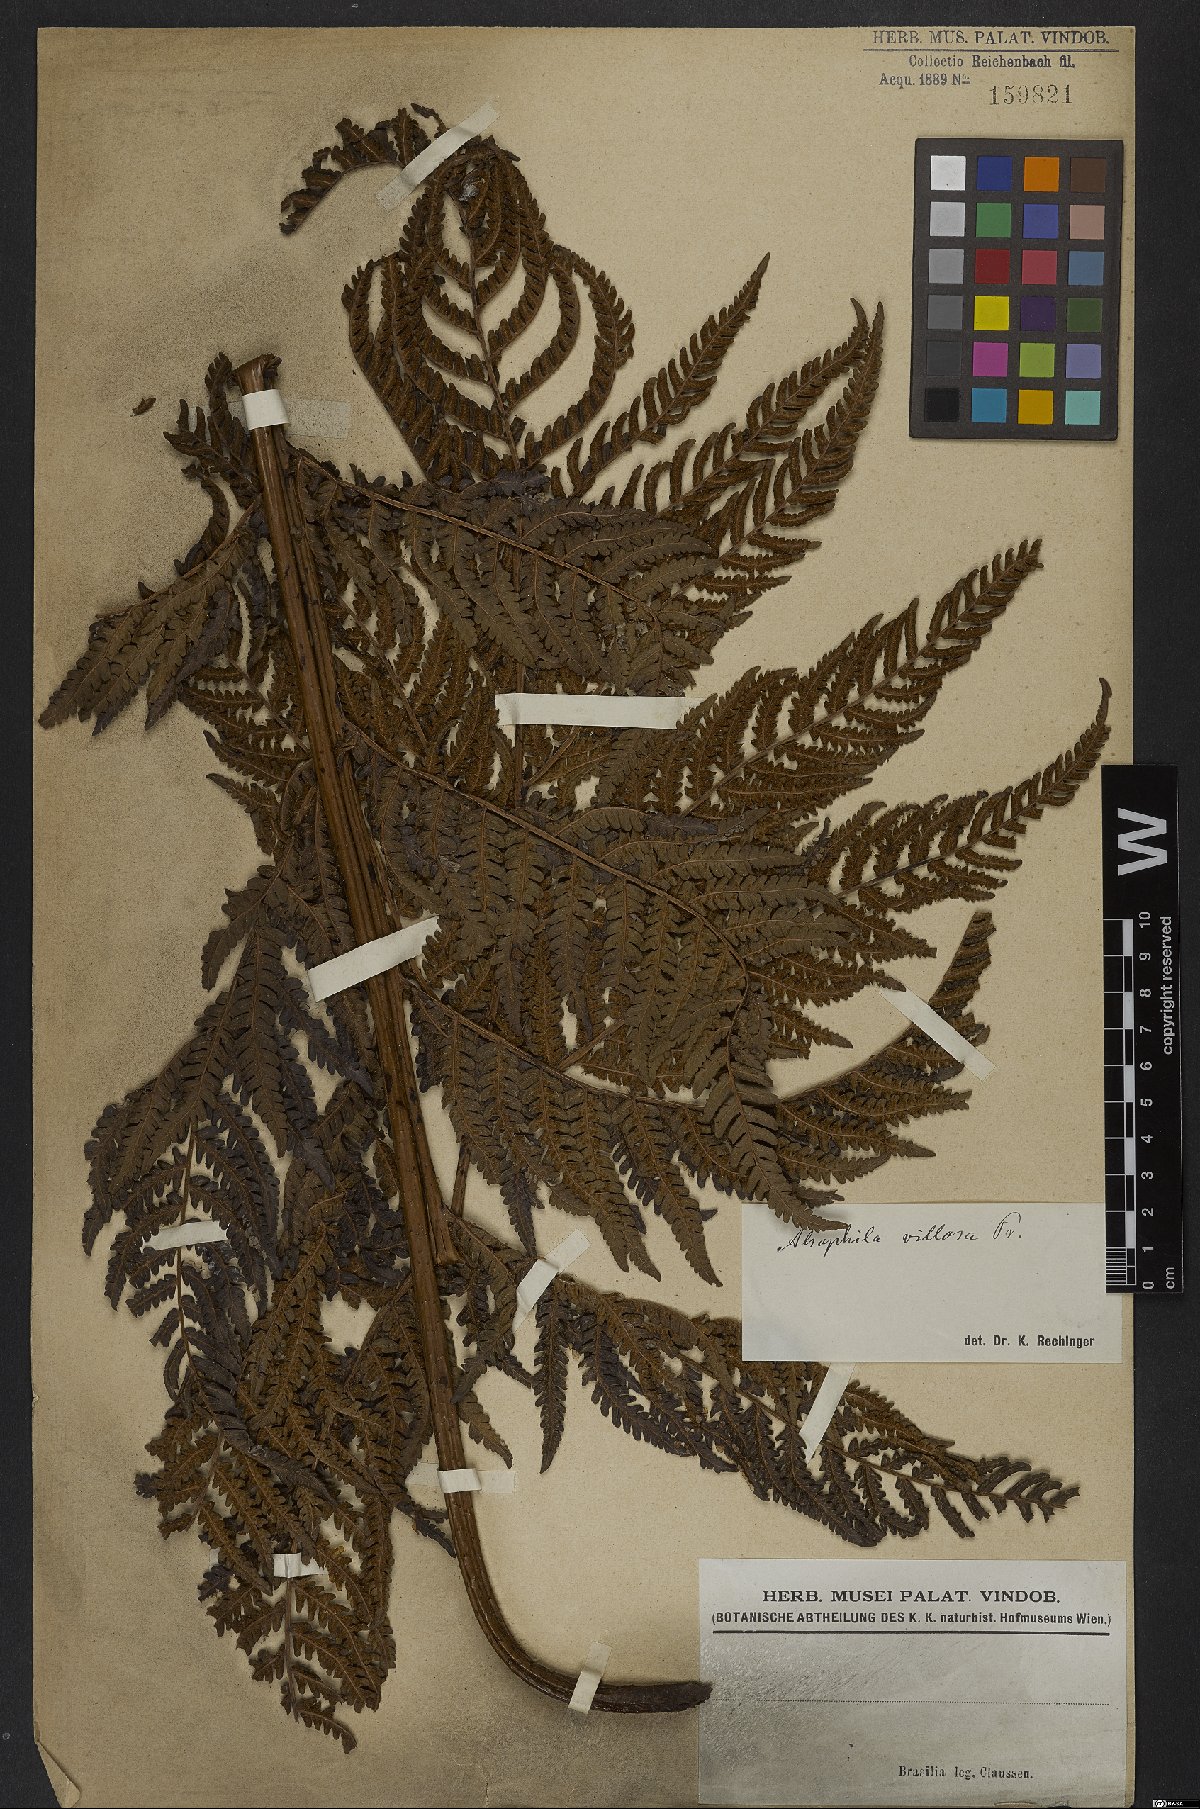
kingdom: Plantae
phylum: Tracheophyta
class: Polypodiopsida
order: Cyatheales
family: Cyatheaceae
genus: Cyathea
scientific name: Cyathea villosa
